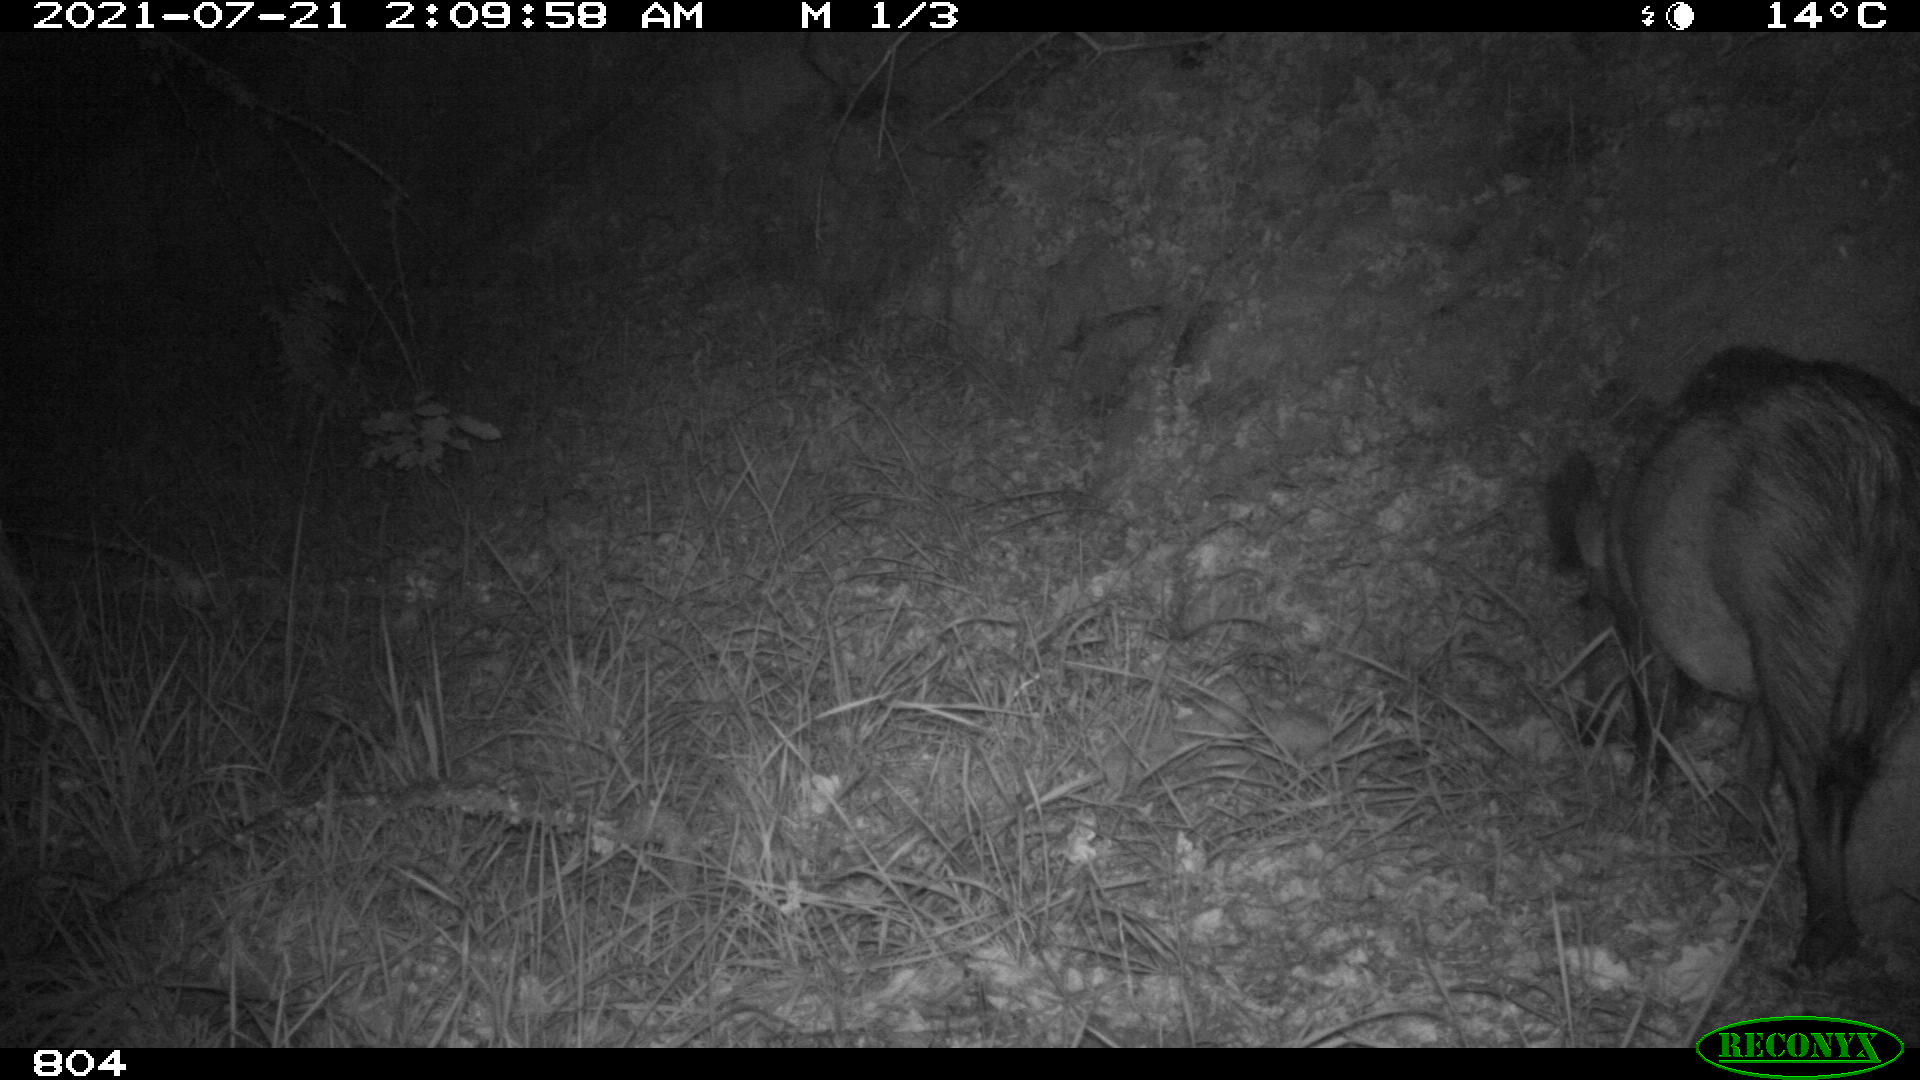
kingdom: Animalia
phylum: Chordata
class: Mammalia
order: Artiodactyla
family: Suidae
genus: Sus
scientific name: Sus scrofa
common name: Wild boar
